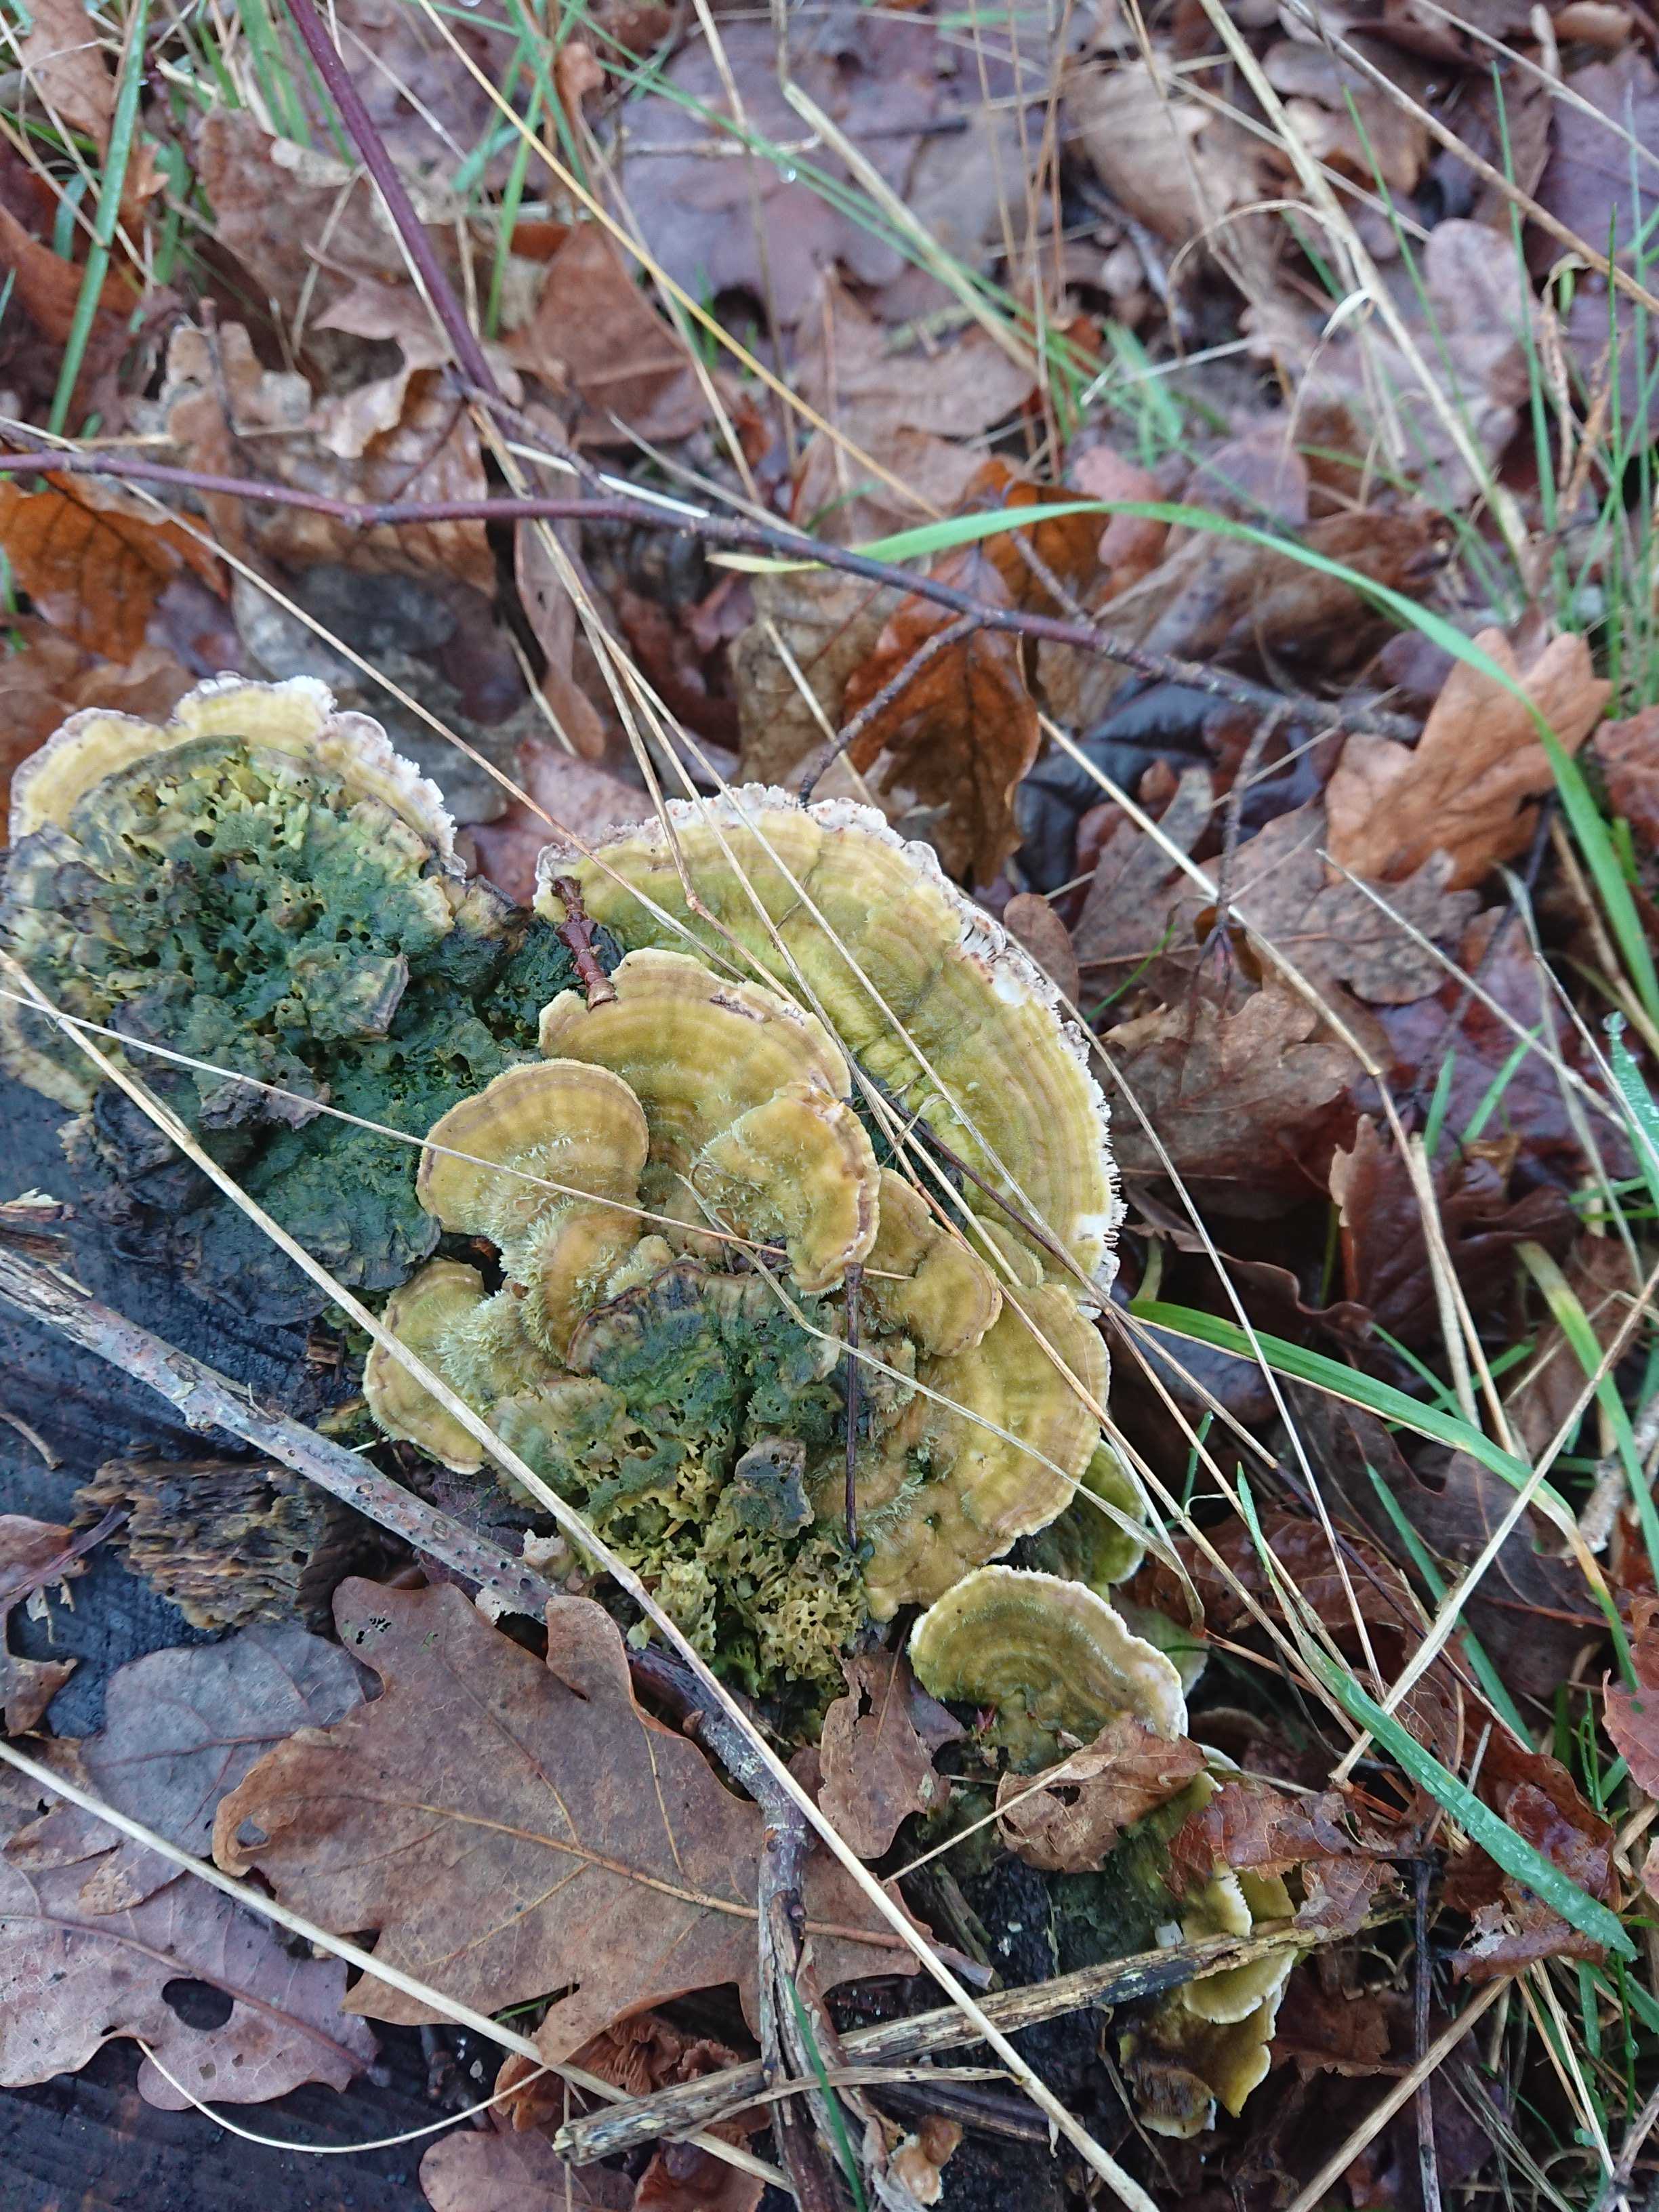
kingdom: Fungi
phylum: Basidiomycota
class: Agaricomycetes
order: Polyporales
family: Polyporaceae
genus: Lenzites
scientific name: Lenzites betulinus
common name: birke-læderporesvamp
